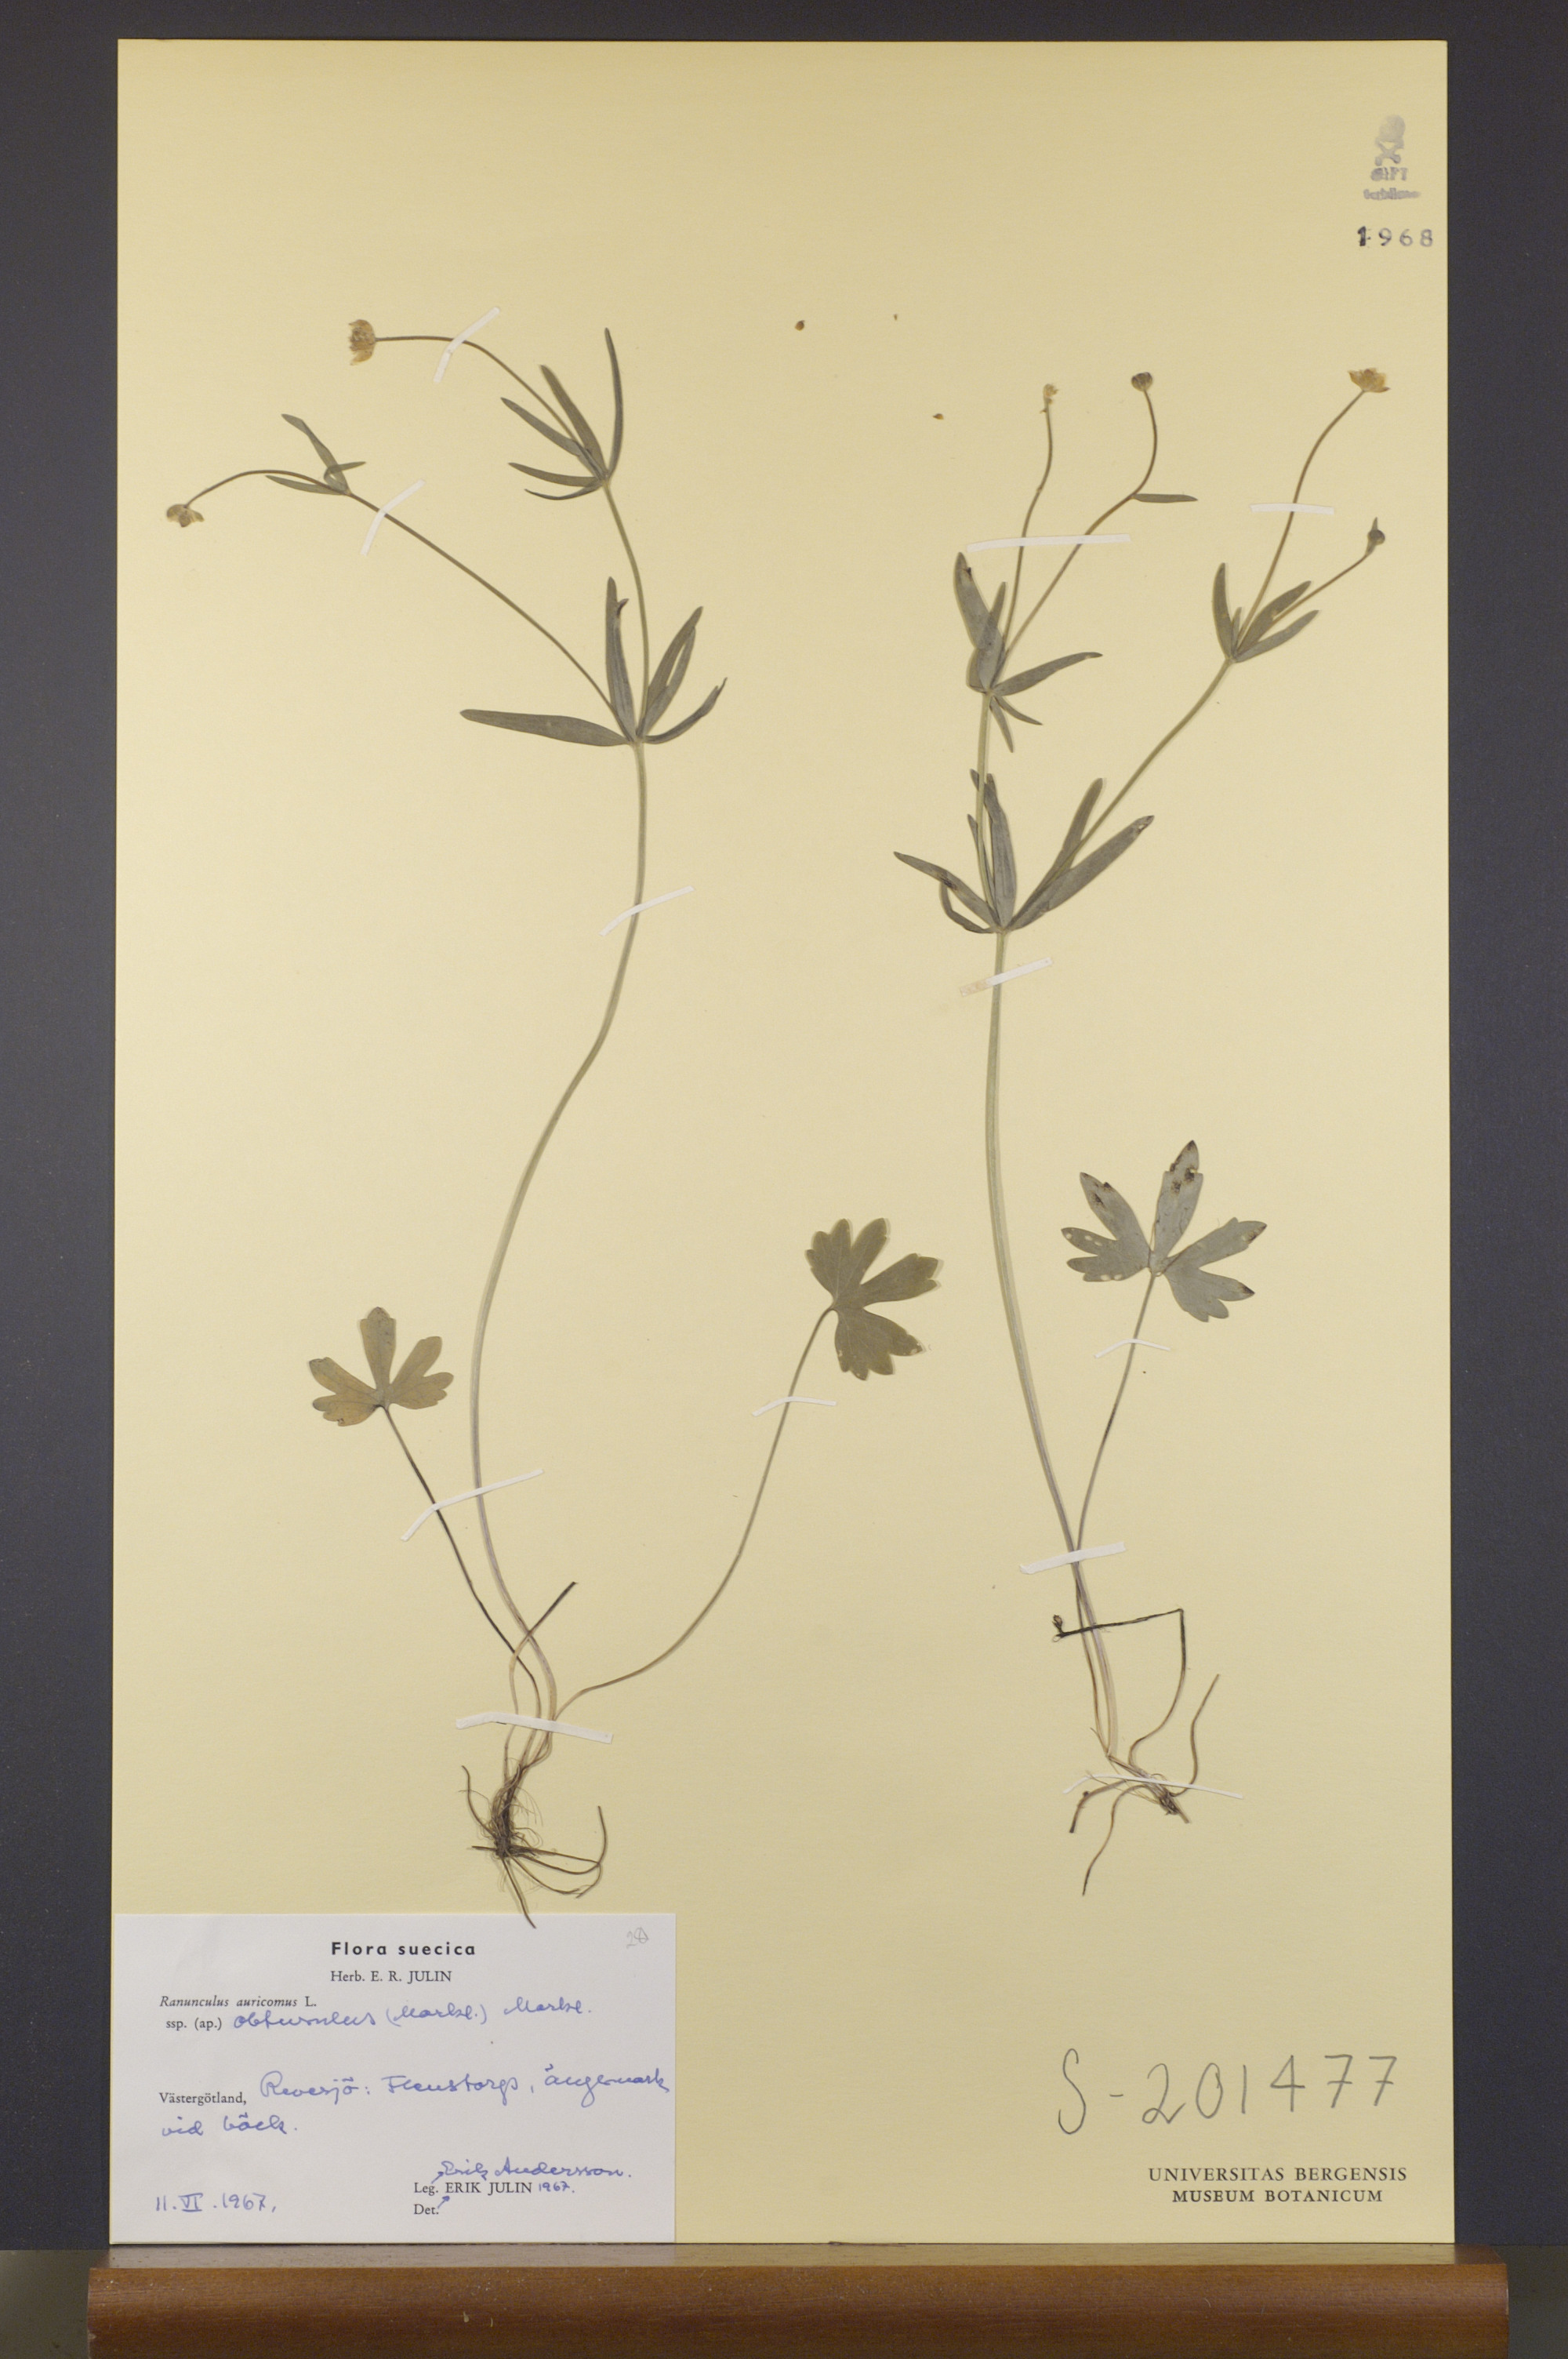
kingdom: Plantae
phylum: Tracheophyta
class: Magnoliopsida
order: Ranunculales
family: Ranunculaceae
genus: Ranunculus
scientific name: Ranunculus auricomus
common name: Goldilocks buttercup
